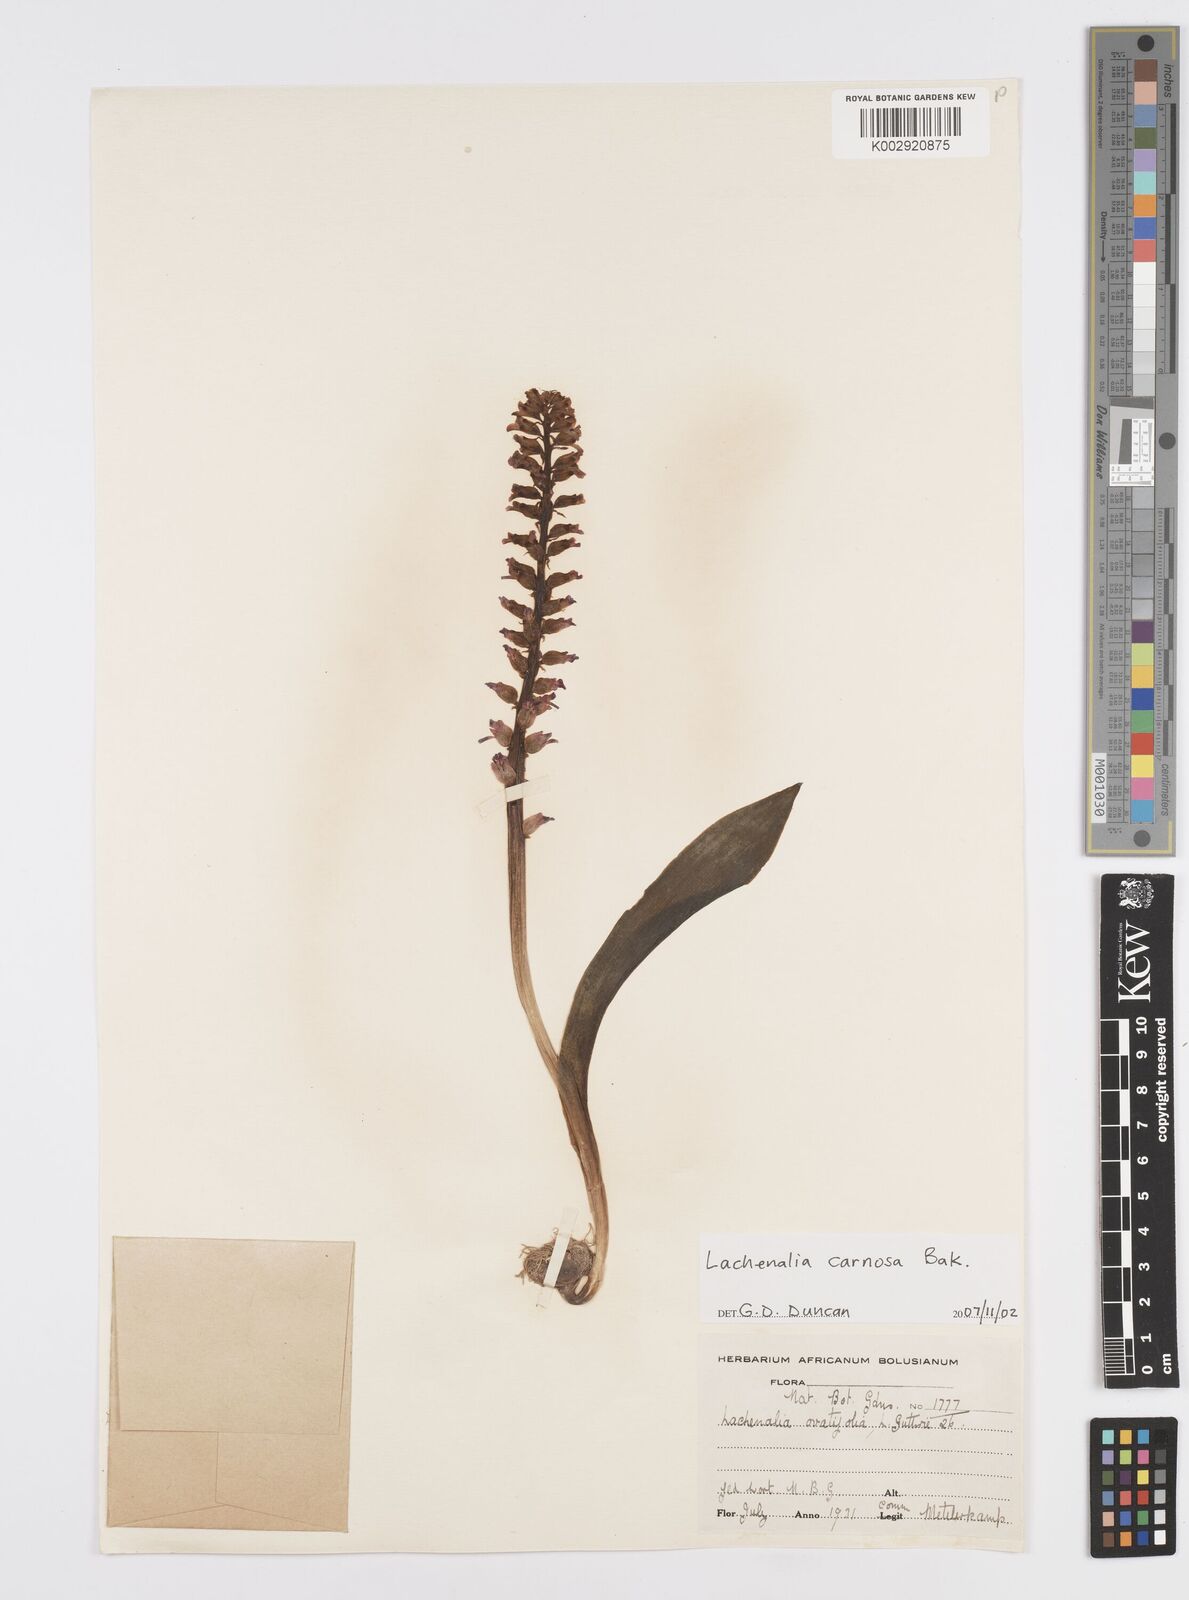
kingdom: Plantae
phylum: Tracheophyta
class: Liliopsida
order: Asparagales
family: Asparagaceae
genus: Lachenalia
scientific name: Lachenalia carnosa
